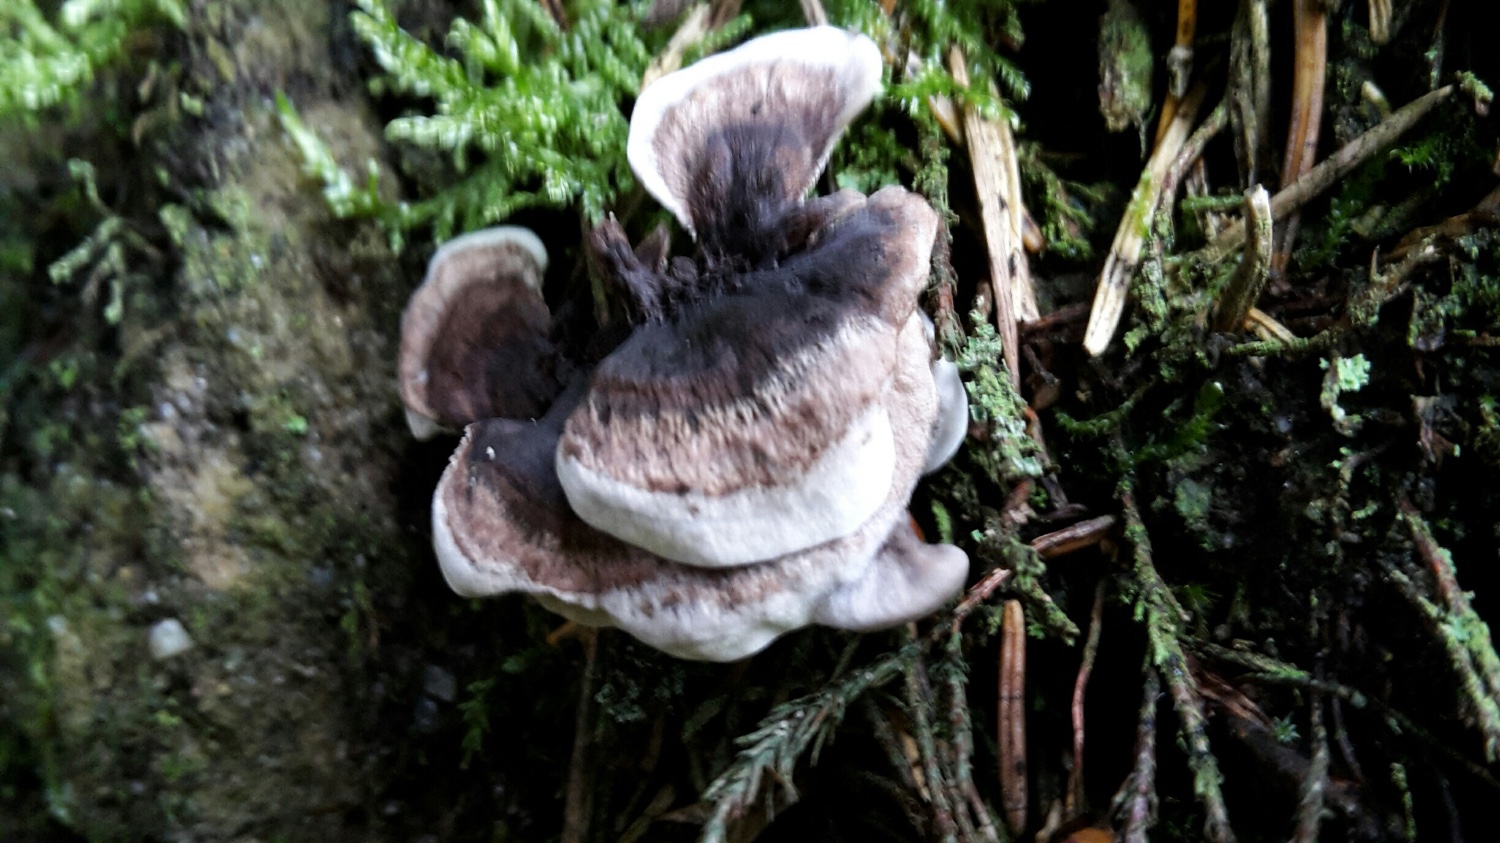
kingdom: Fungi
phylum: Basidiomycota
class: Agaricomycetes
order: Thelephorales
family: Thelephoraceae
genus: Phellodon
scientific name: Phellodon tomentosus
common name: vellugtende duftpigsvamp
